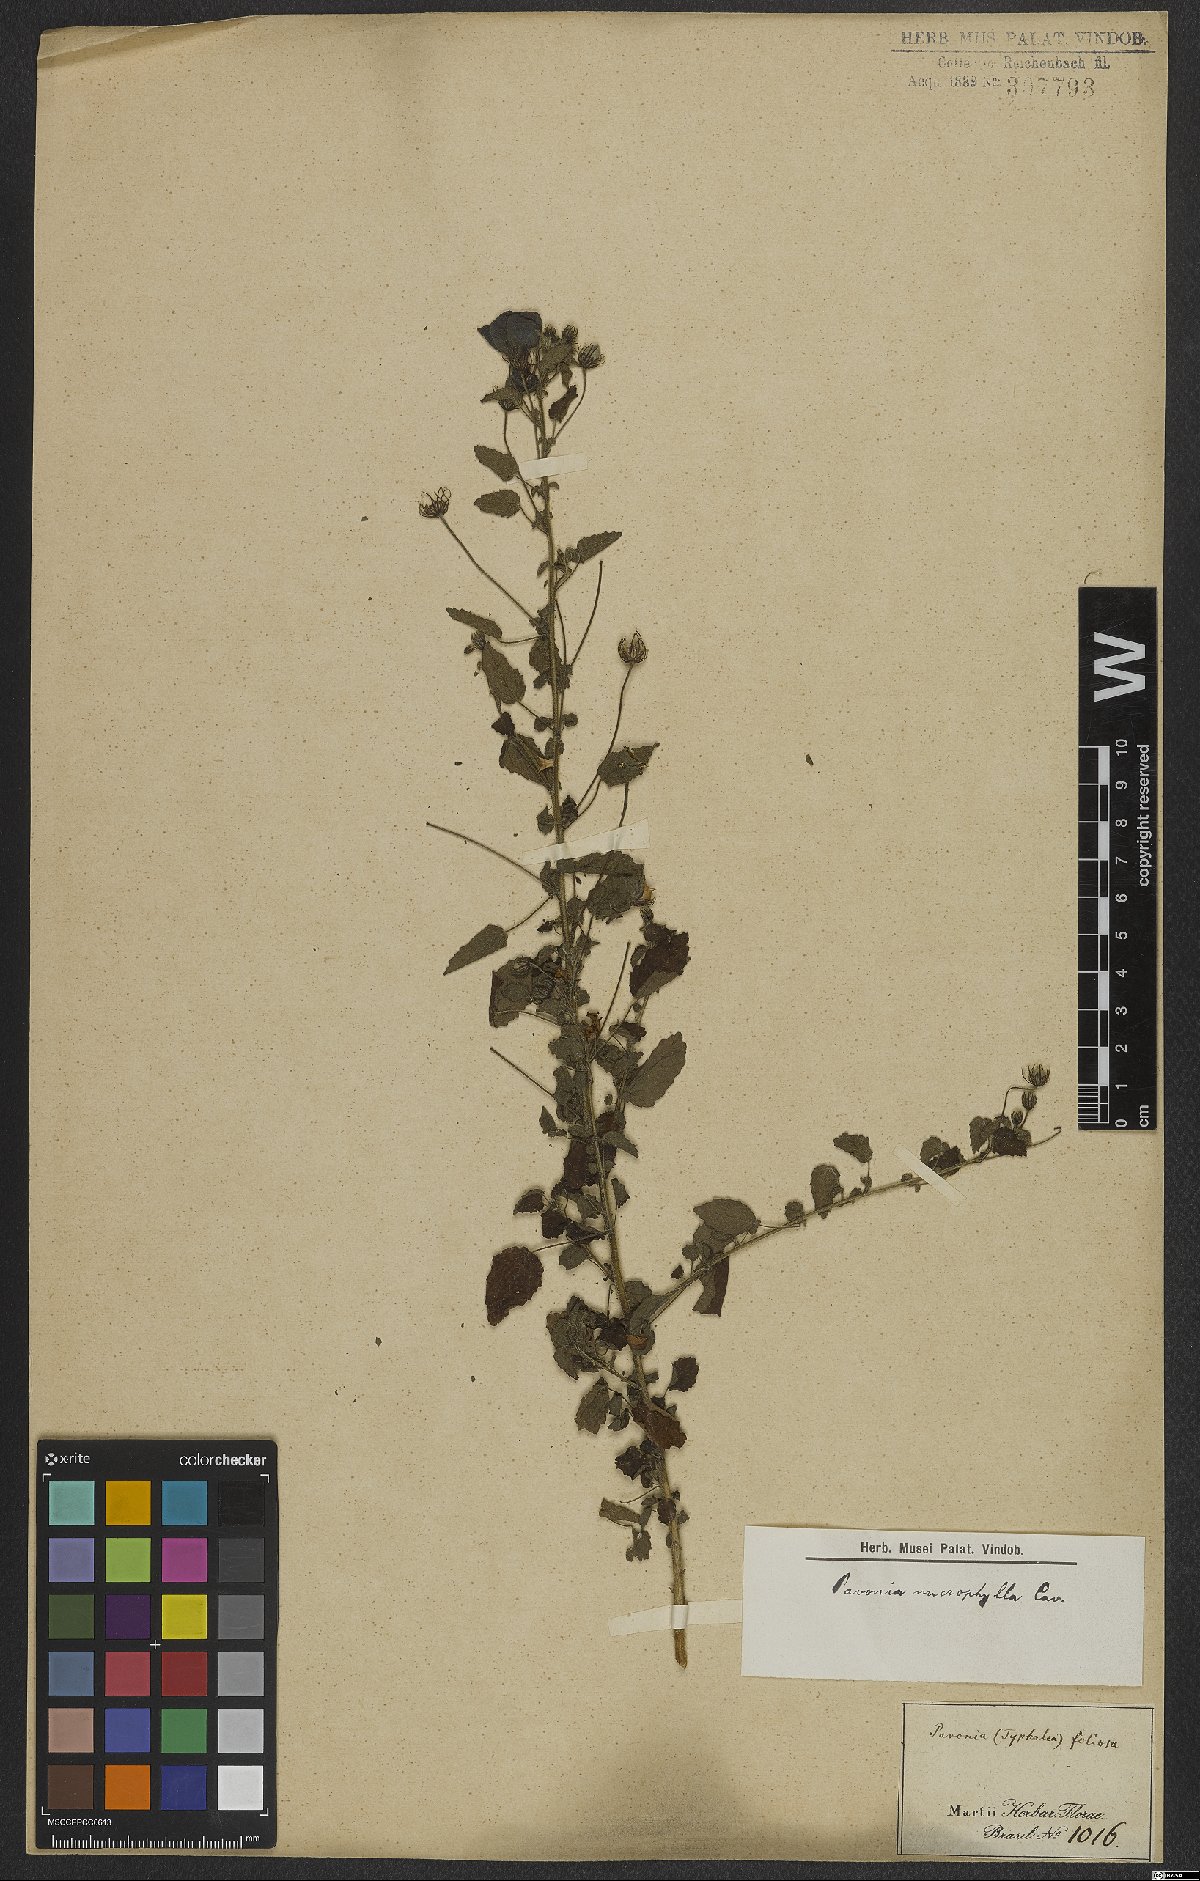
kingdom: Plantae
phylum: Tracheophyta
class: Magnoliopsida
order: Malvales
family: Malvaceae
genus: Pavonia
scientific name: Pavonia dregei
